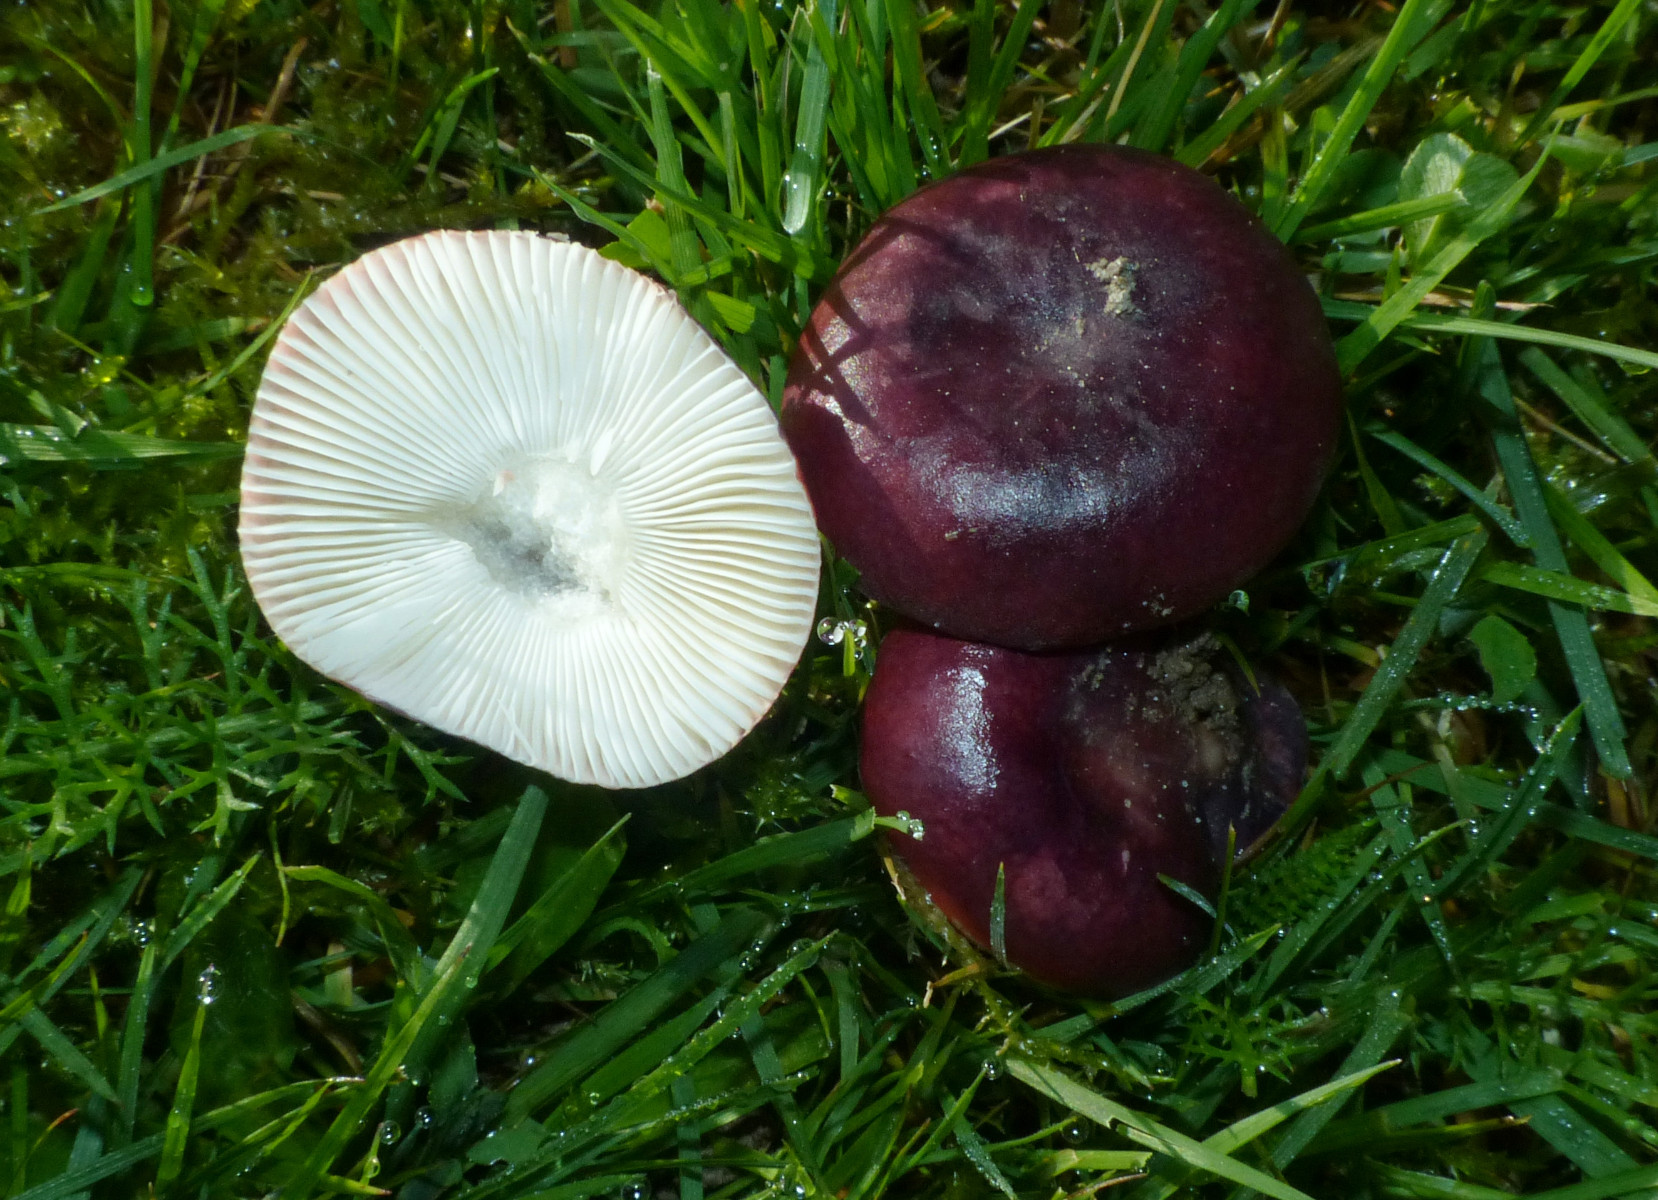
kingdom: Fungi
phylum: Basidiomycota
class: Agaricomycetes
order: Russulales
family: Russulaceae
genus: Russula
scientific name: Russula laccata
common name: klit-skørhat
